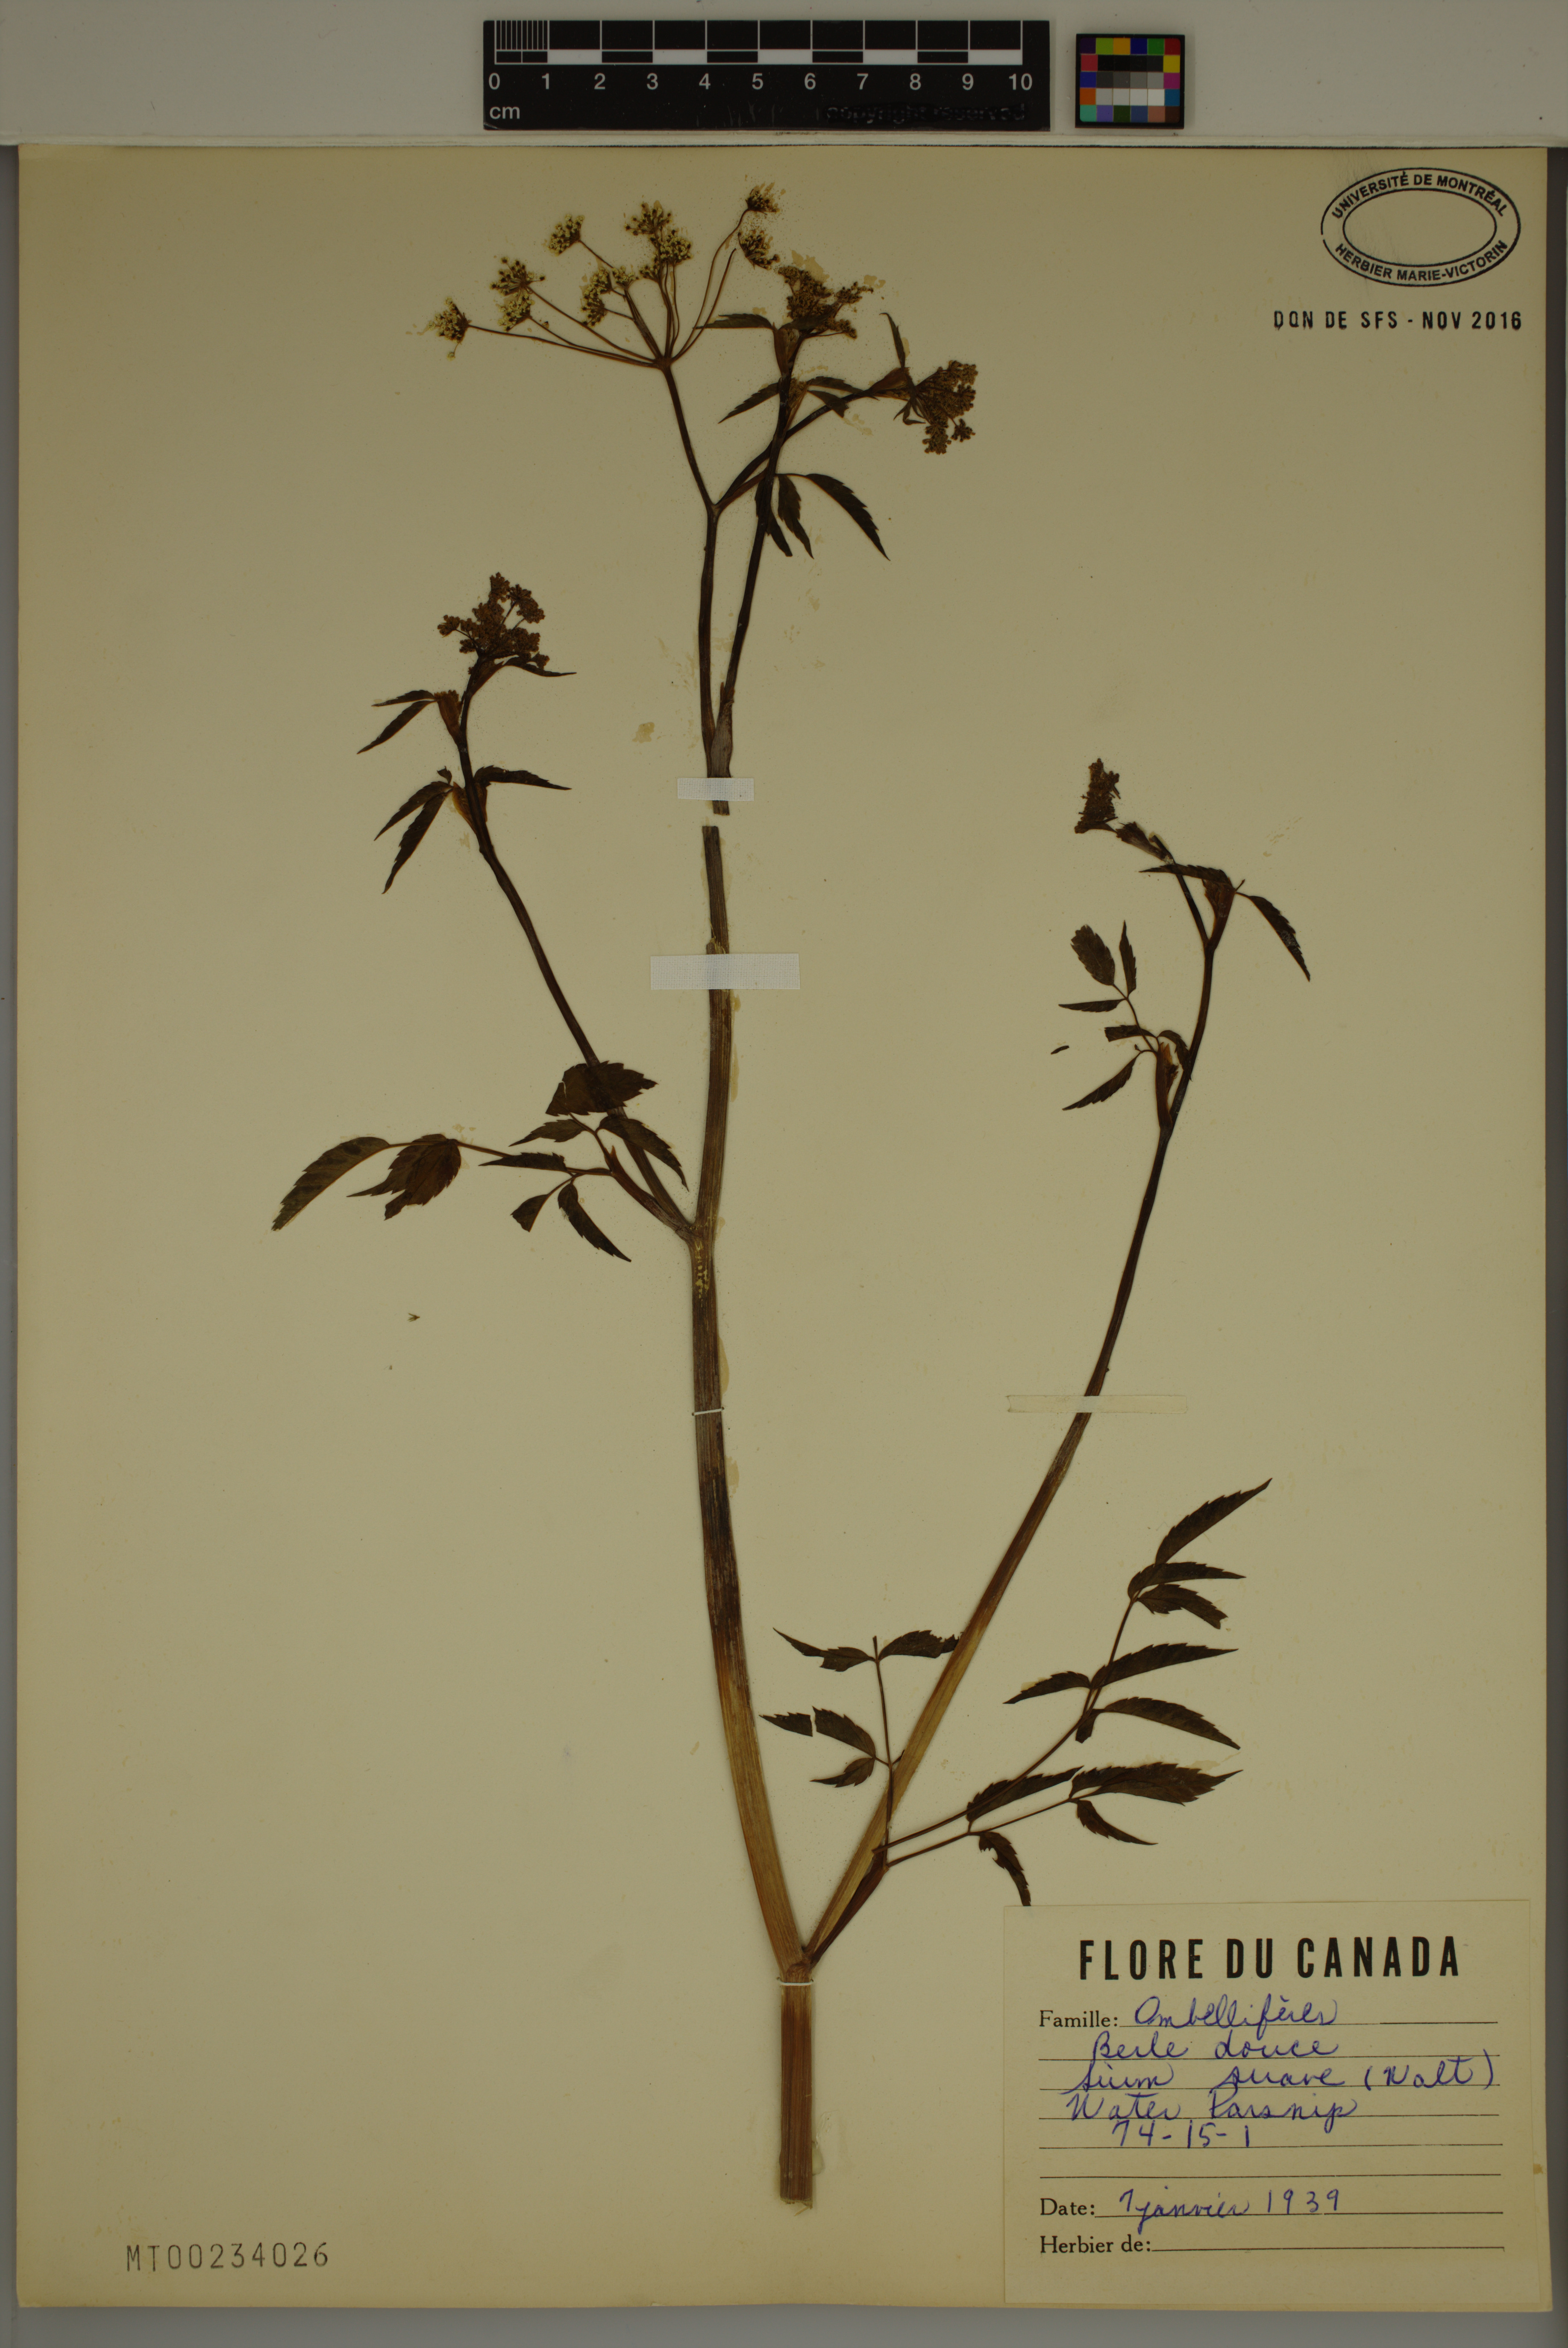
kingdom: Plantae
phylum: Tracheophyta
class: Magnoliopsida
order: Apiales
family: Apiaceae
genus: Sium
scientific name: Sium suave
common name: Hemlock water-parsnip
